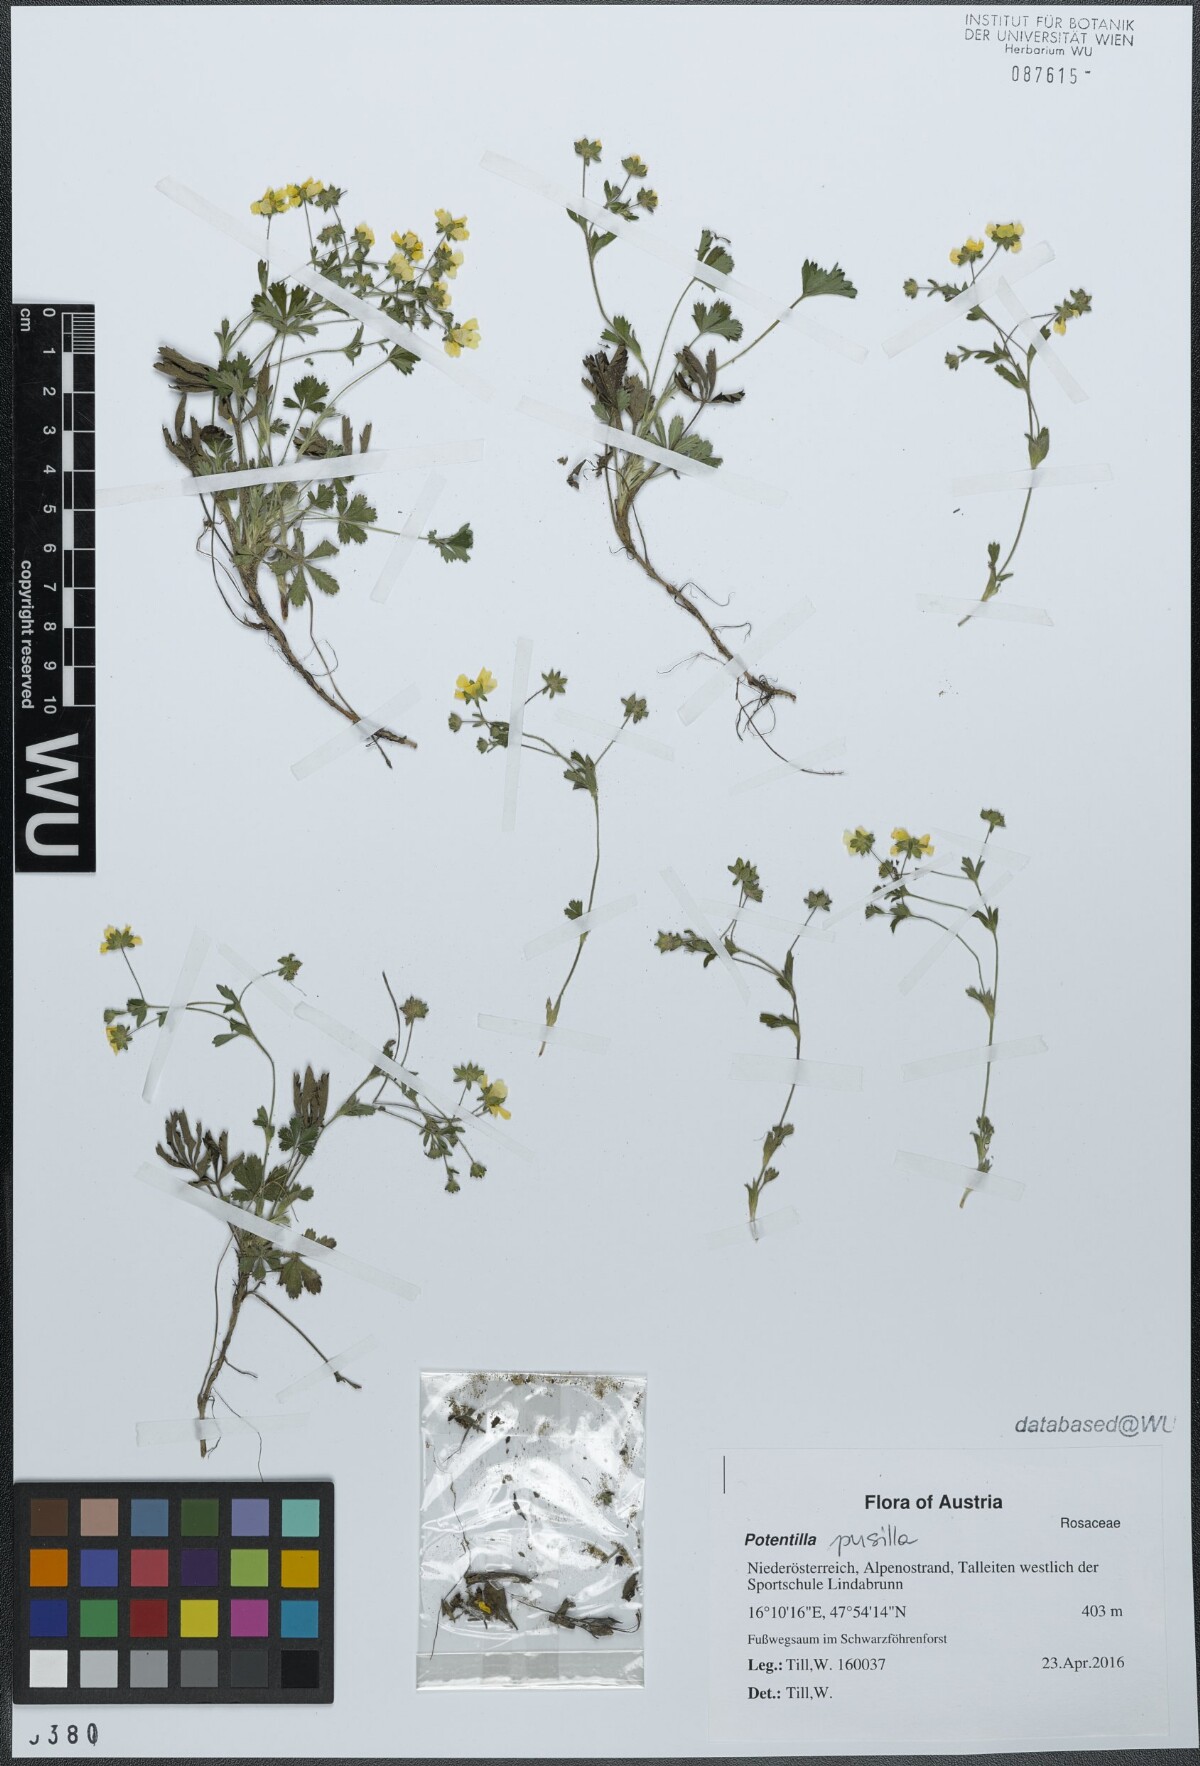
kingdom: Plantae
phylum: Tracheophyta
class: Magnoliopsida
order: Rosales
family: Rosaceae
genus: Potentilla
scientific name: Potentilla pusilla
